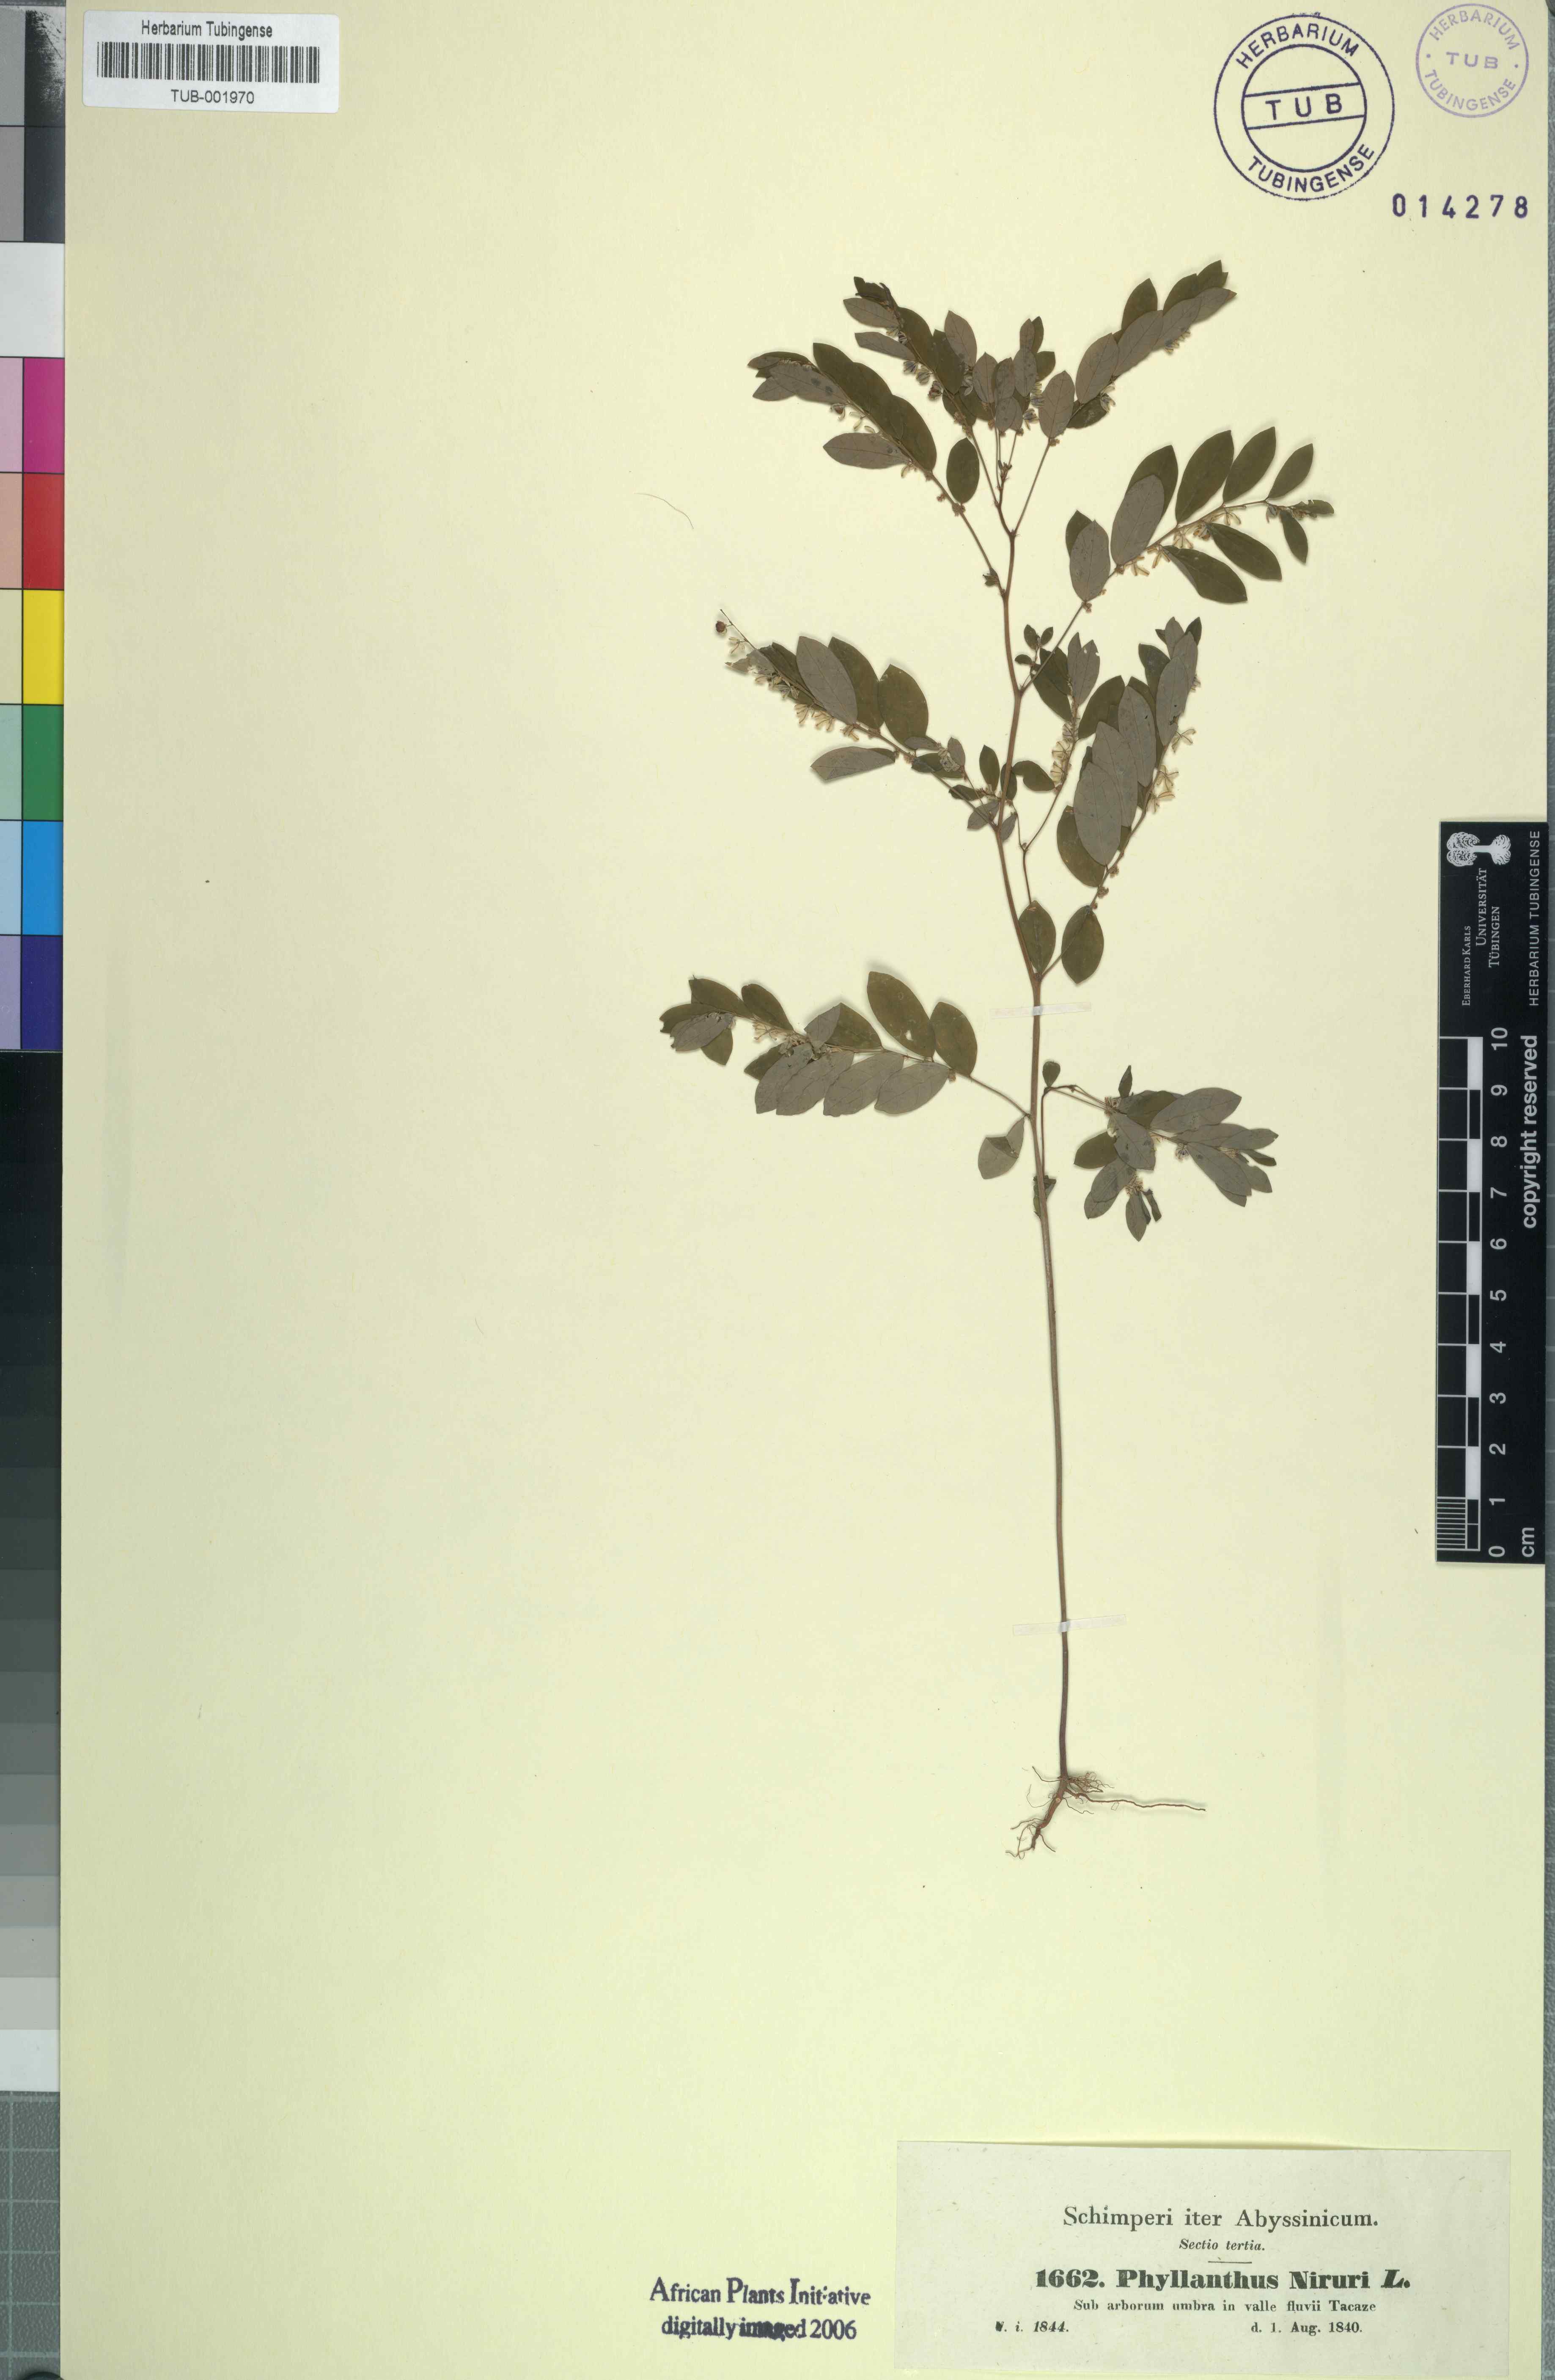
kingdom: Plantae
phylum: Tracheophyta
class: Magnoliopsida
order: Malpighiales
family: Phyllanthaceae
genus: Phyllanthus
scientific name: Phyllanthus niruri
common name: Niruri
